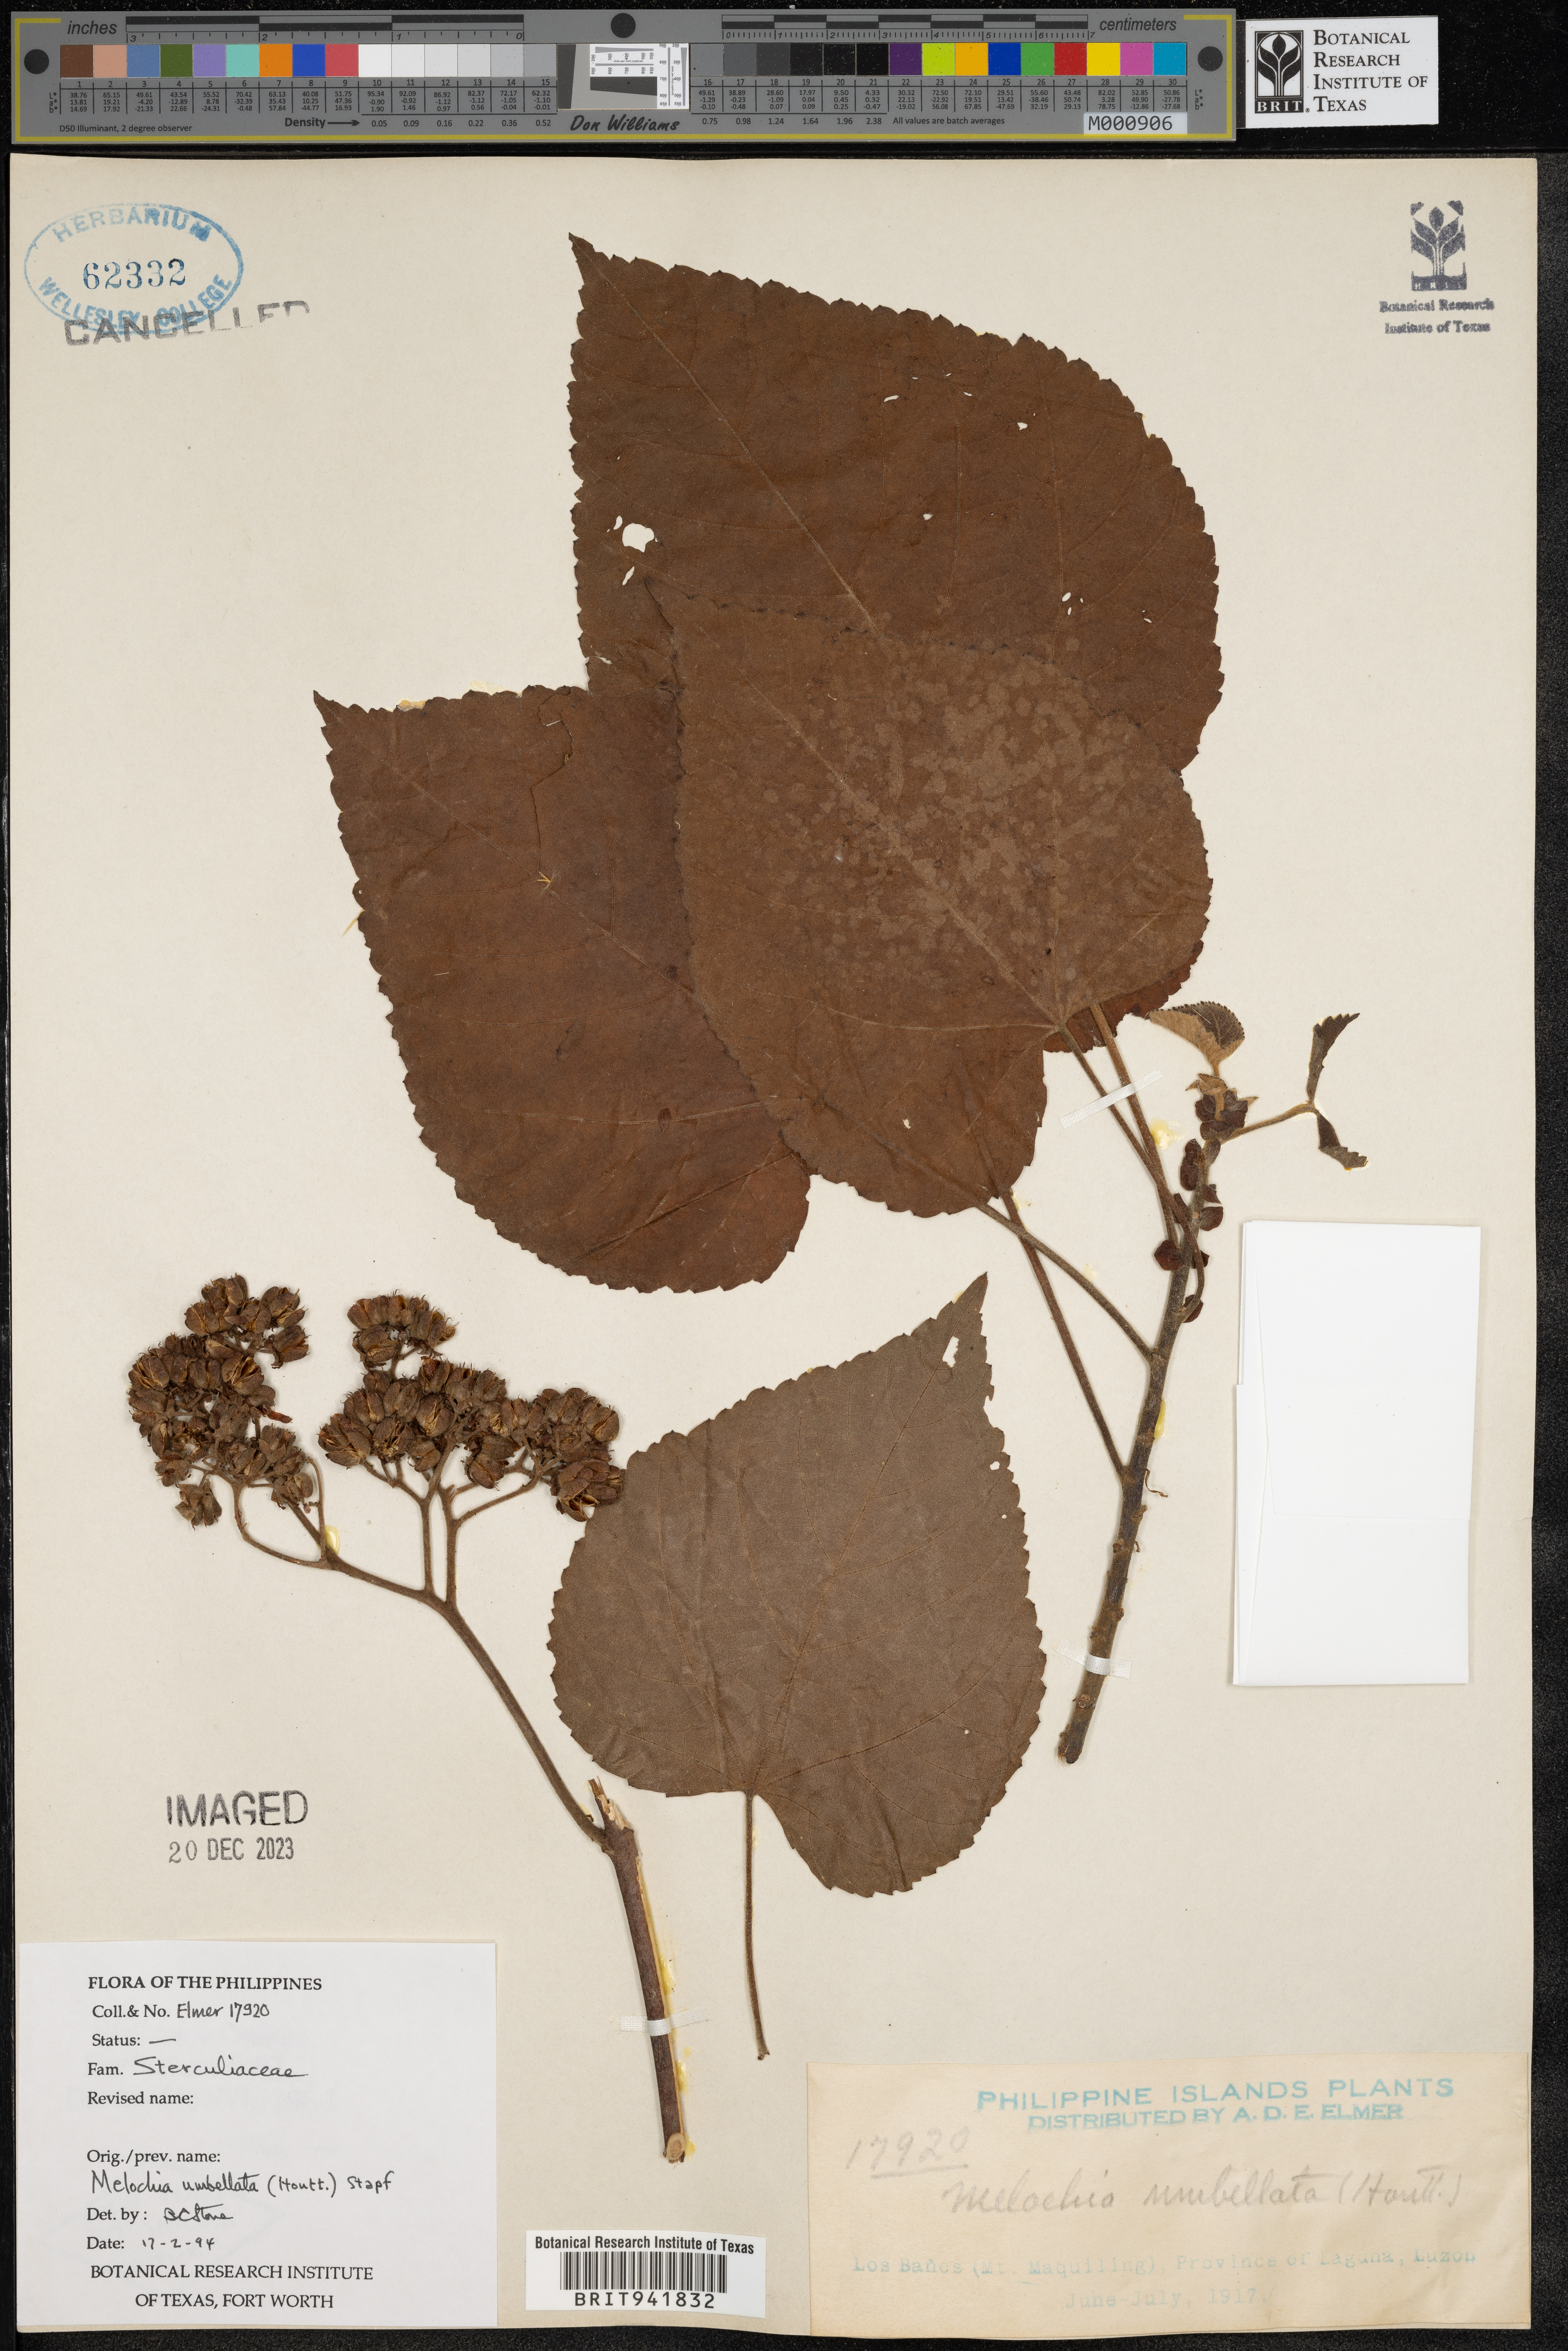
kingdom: Plantae
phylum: Tracheophyta
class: Magnoliopsida
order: Malvales
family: Malvaceae
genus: Melochia
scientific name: Melochia
